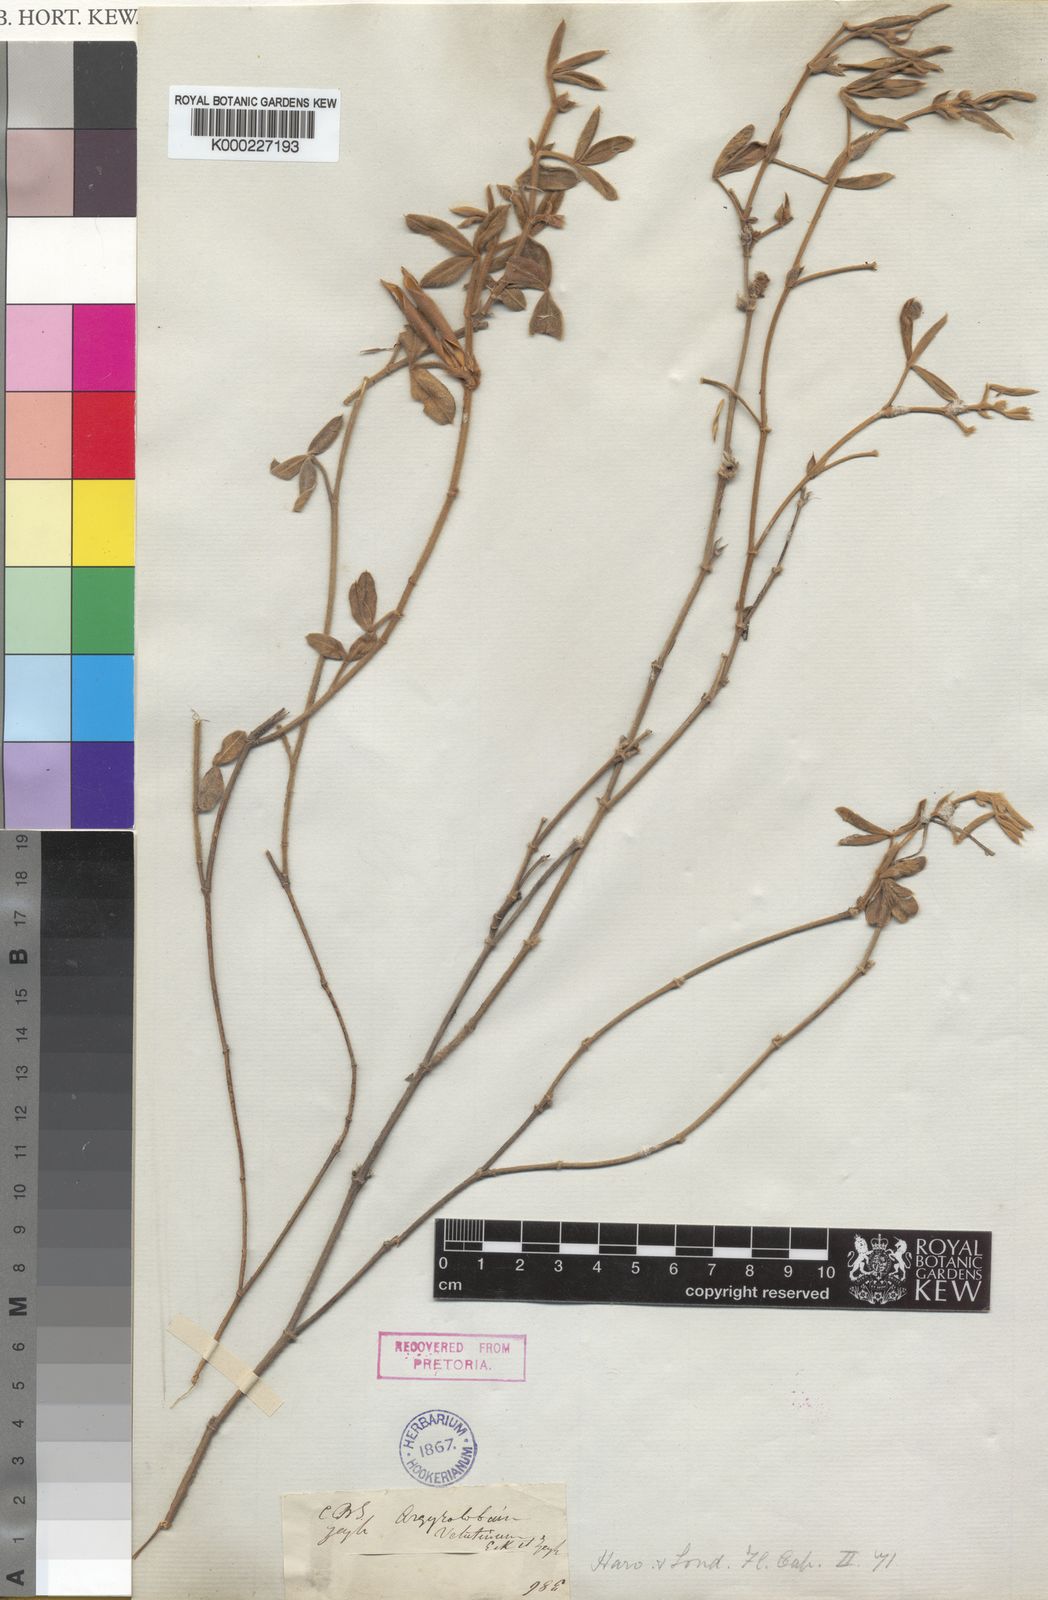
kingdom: Plantae
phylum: Tracheophyta
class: Magnoliopsida
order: Fabales
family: Fabaceae
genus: Argyrolobium
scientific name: Argyrolobium velutinum
